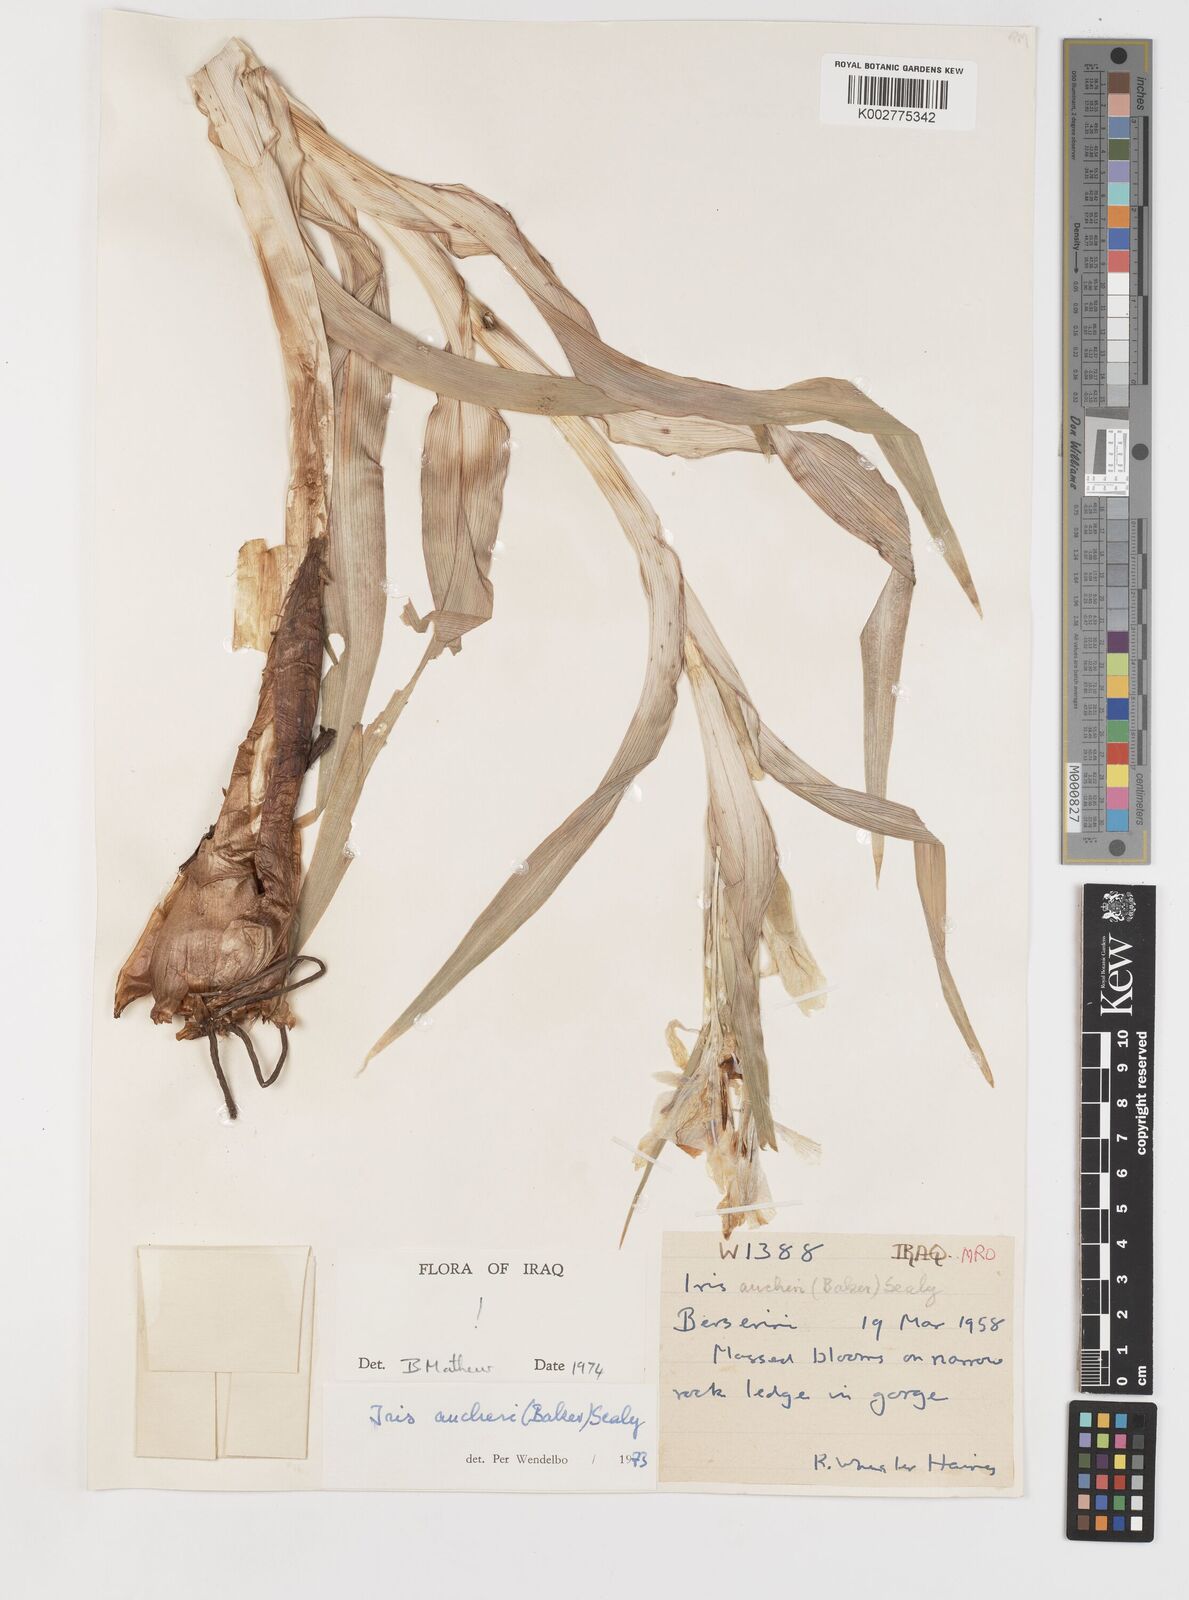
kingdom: Plantae
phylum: Tracheophyta
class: Liliopsida
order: Asparagales
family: Iridaceae
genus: Iris
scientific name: Iris aucheri
